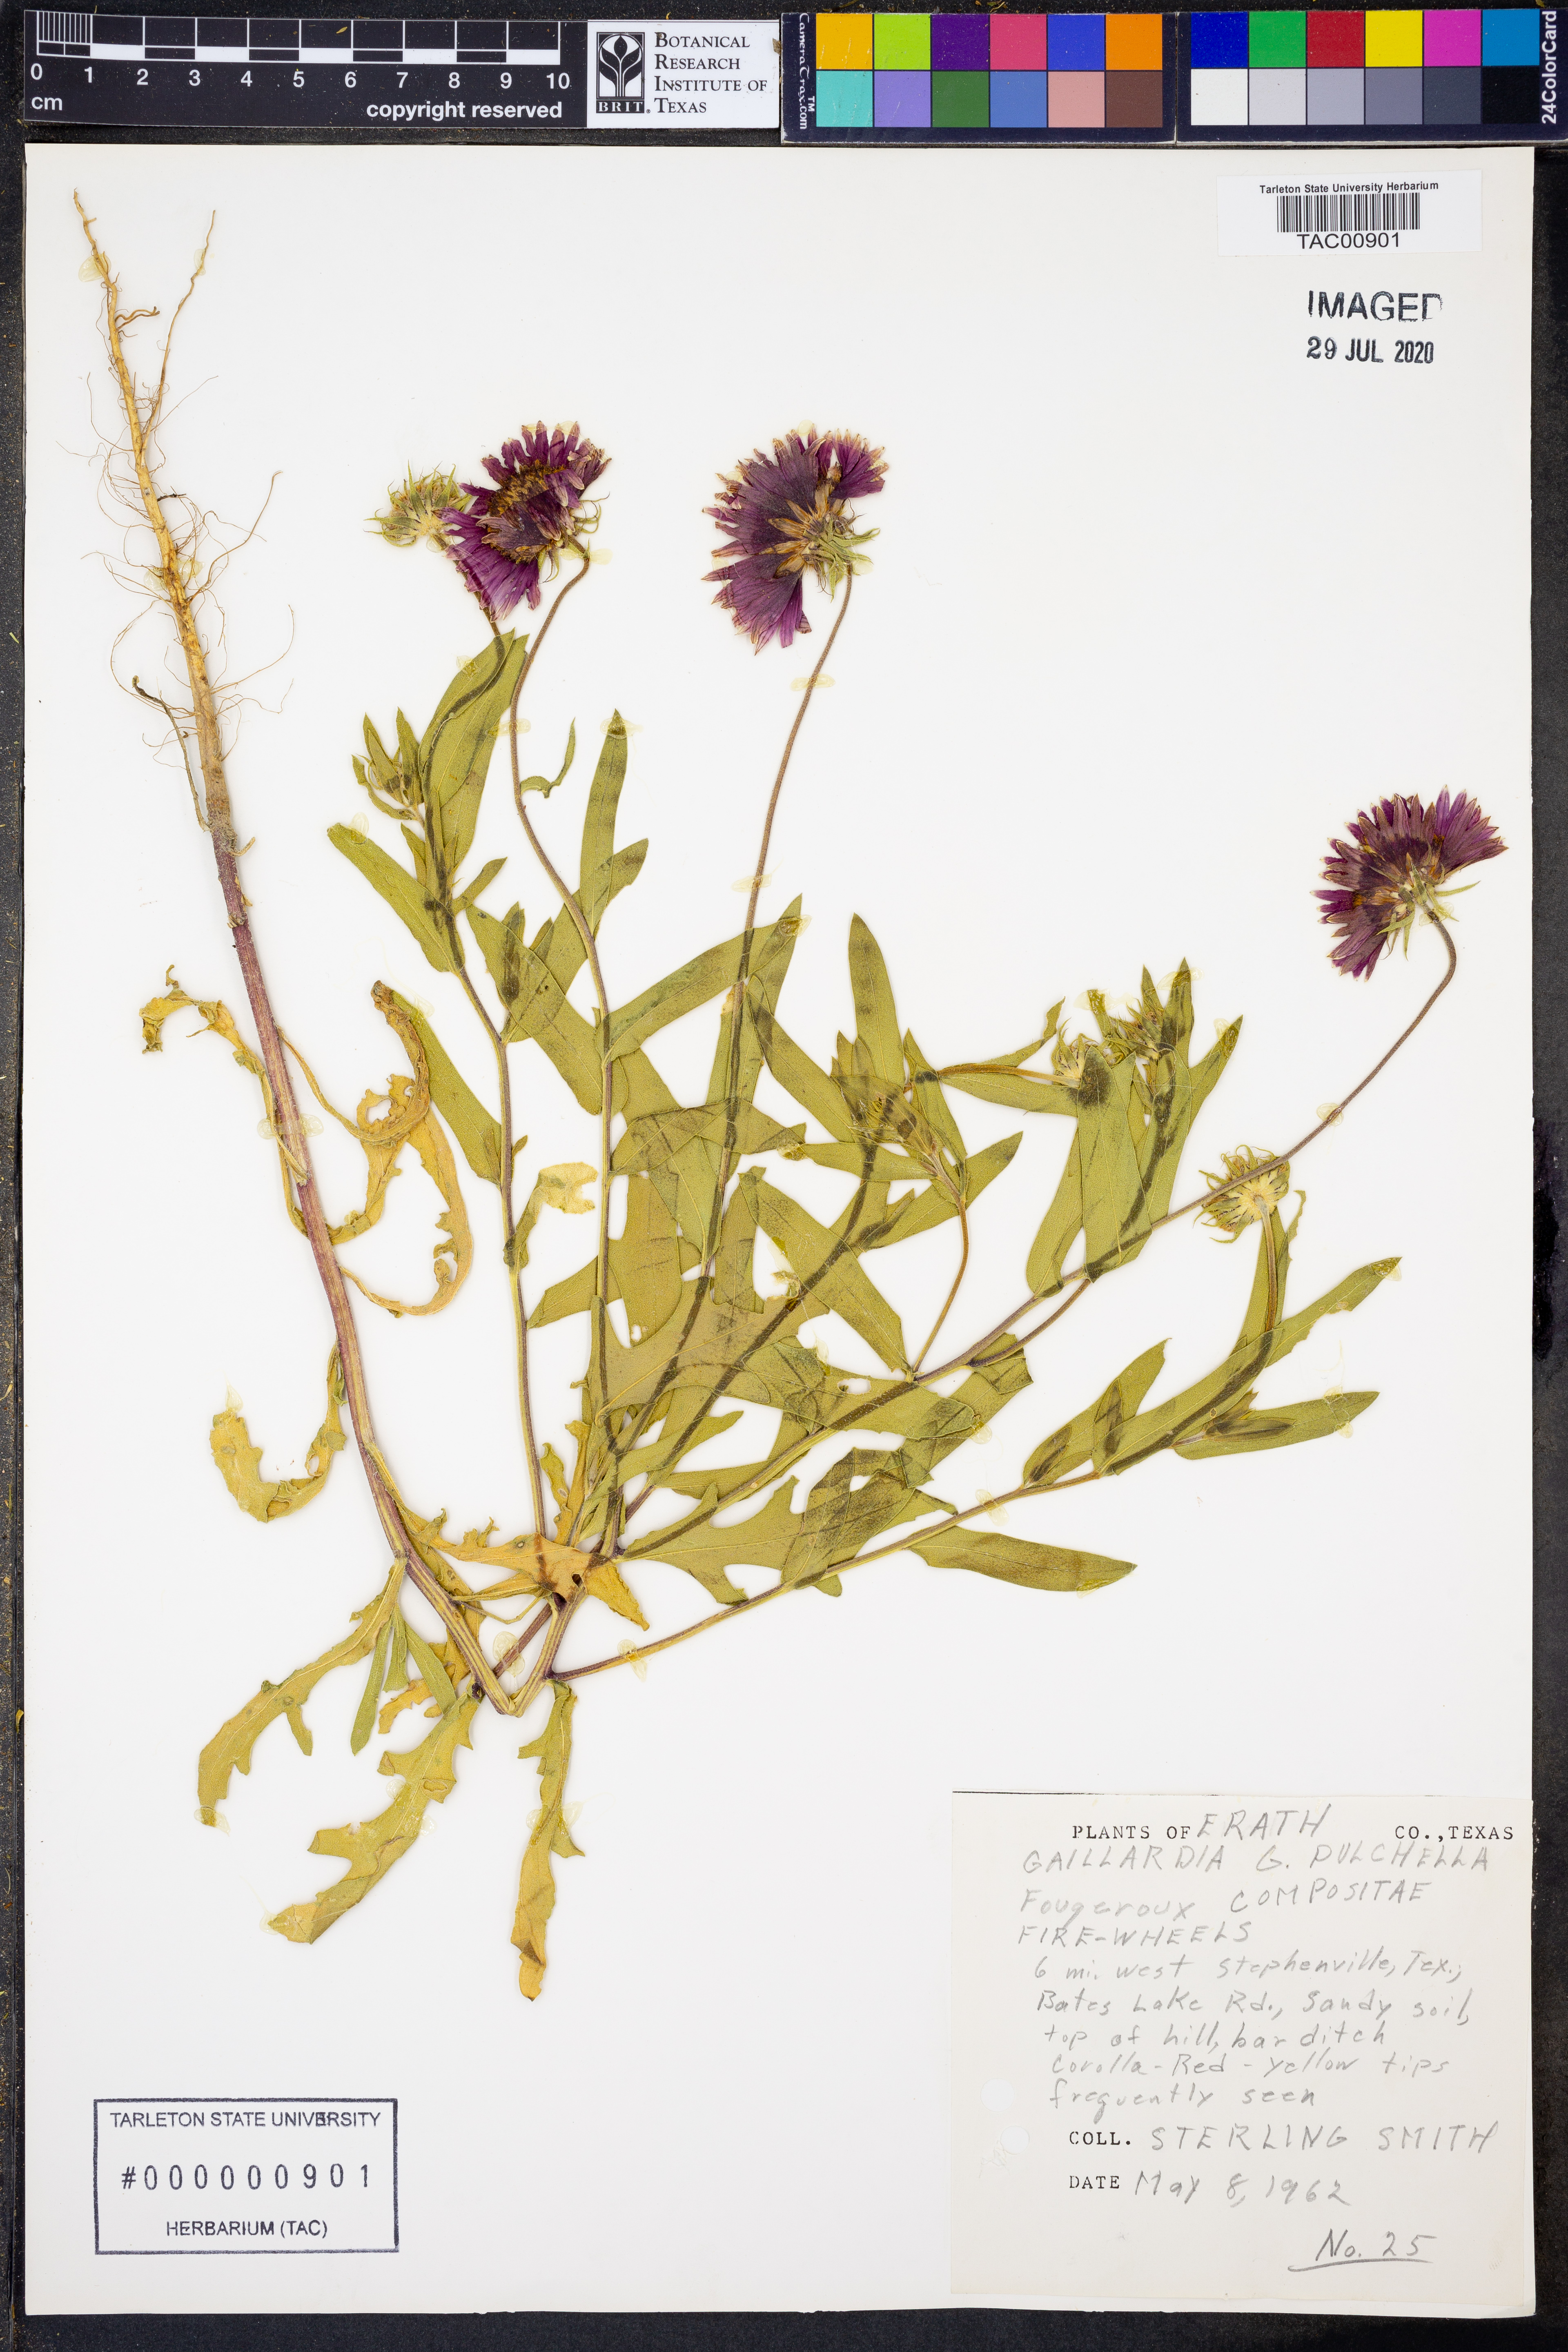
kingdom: Plantae
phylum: Tracheophyta
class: Magnoliopsida
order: Asterales
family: Asteraceae
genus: Gaillardia
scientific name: Gaillardia pulchella
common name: Firewheel
